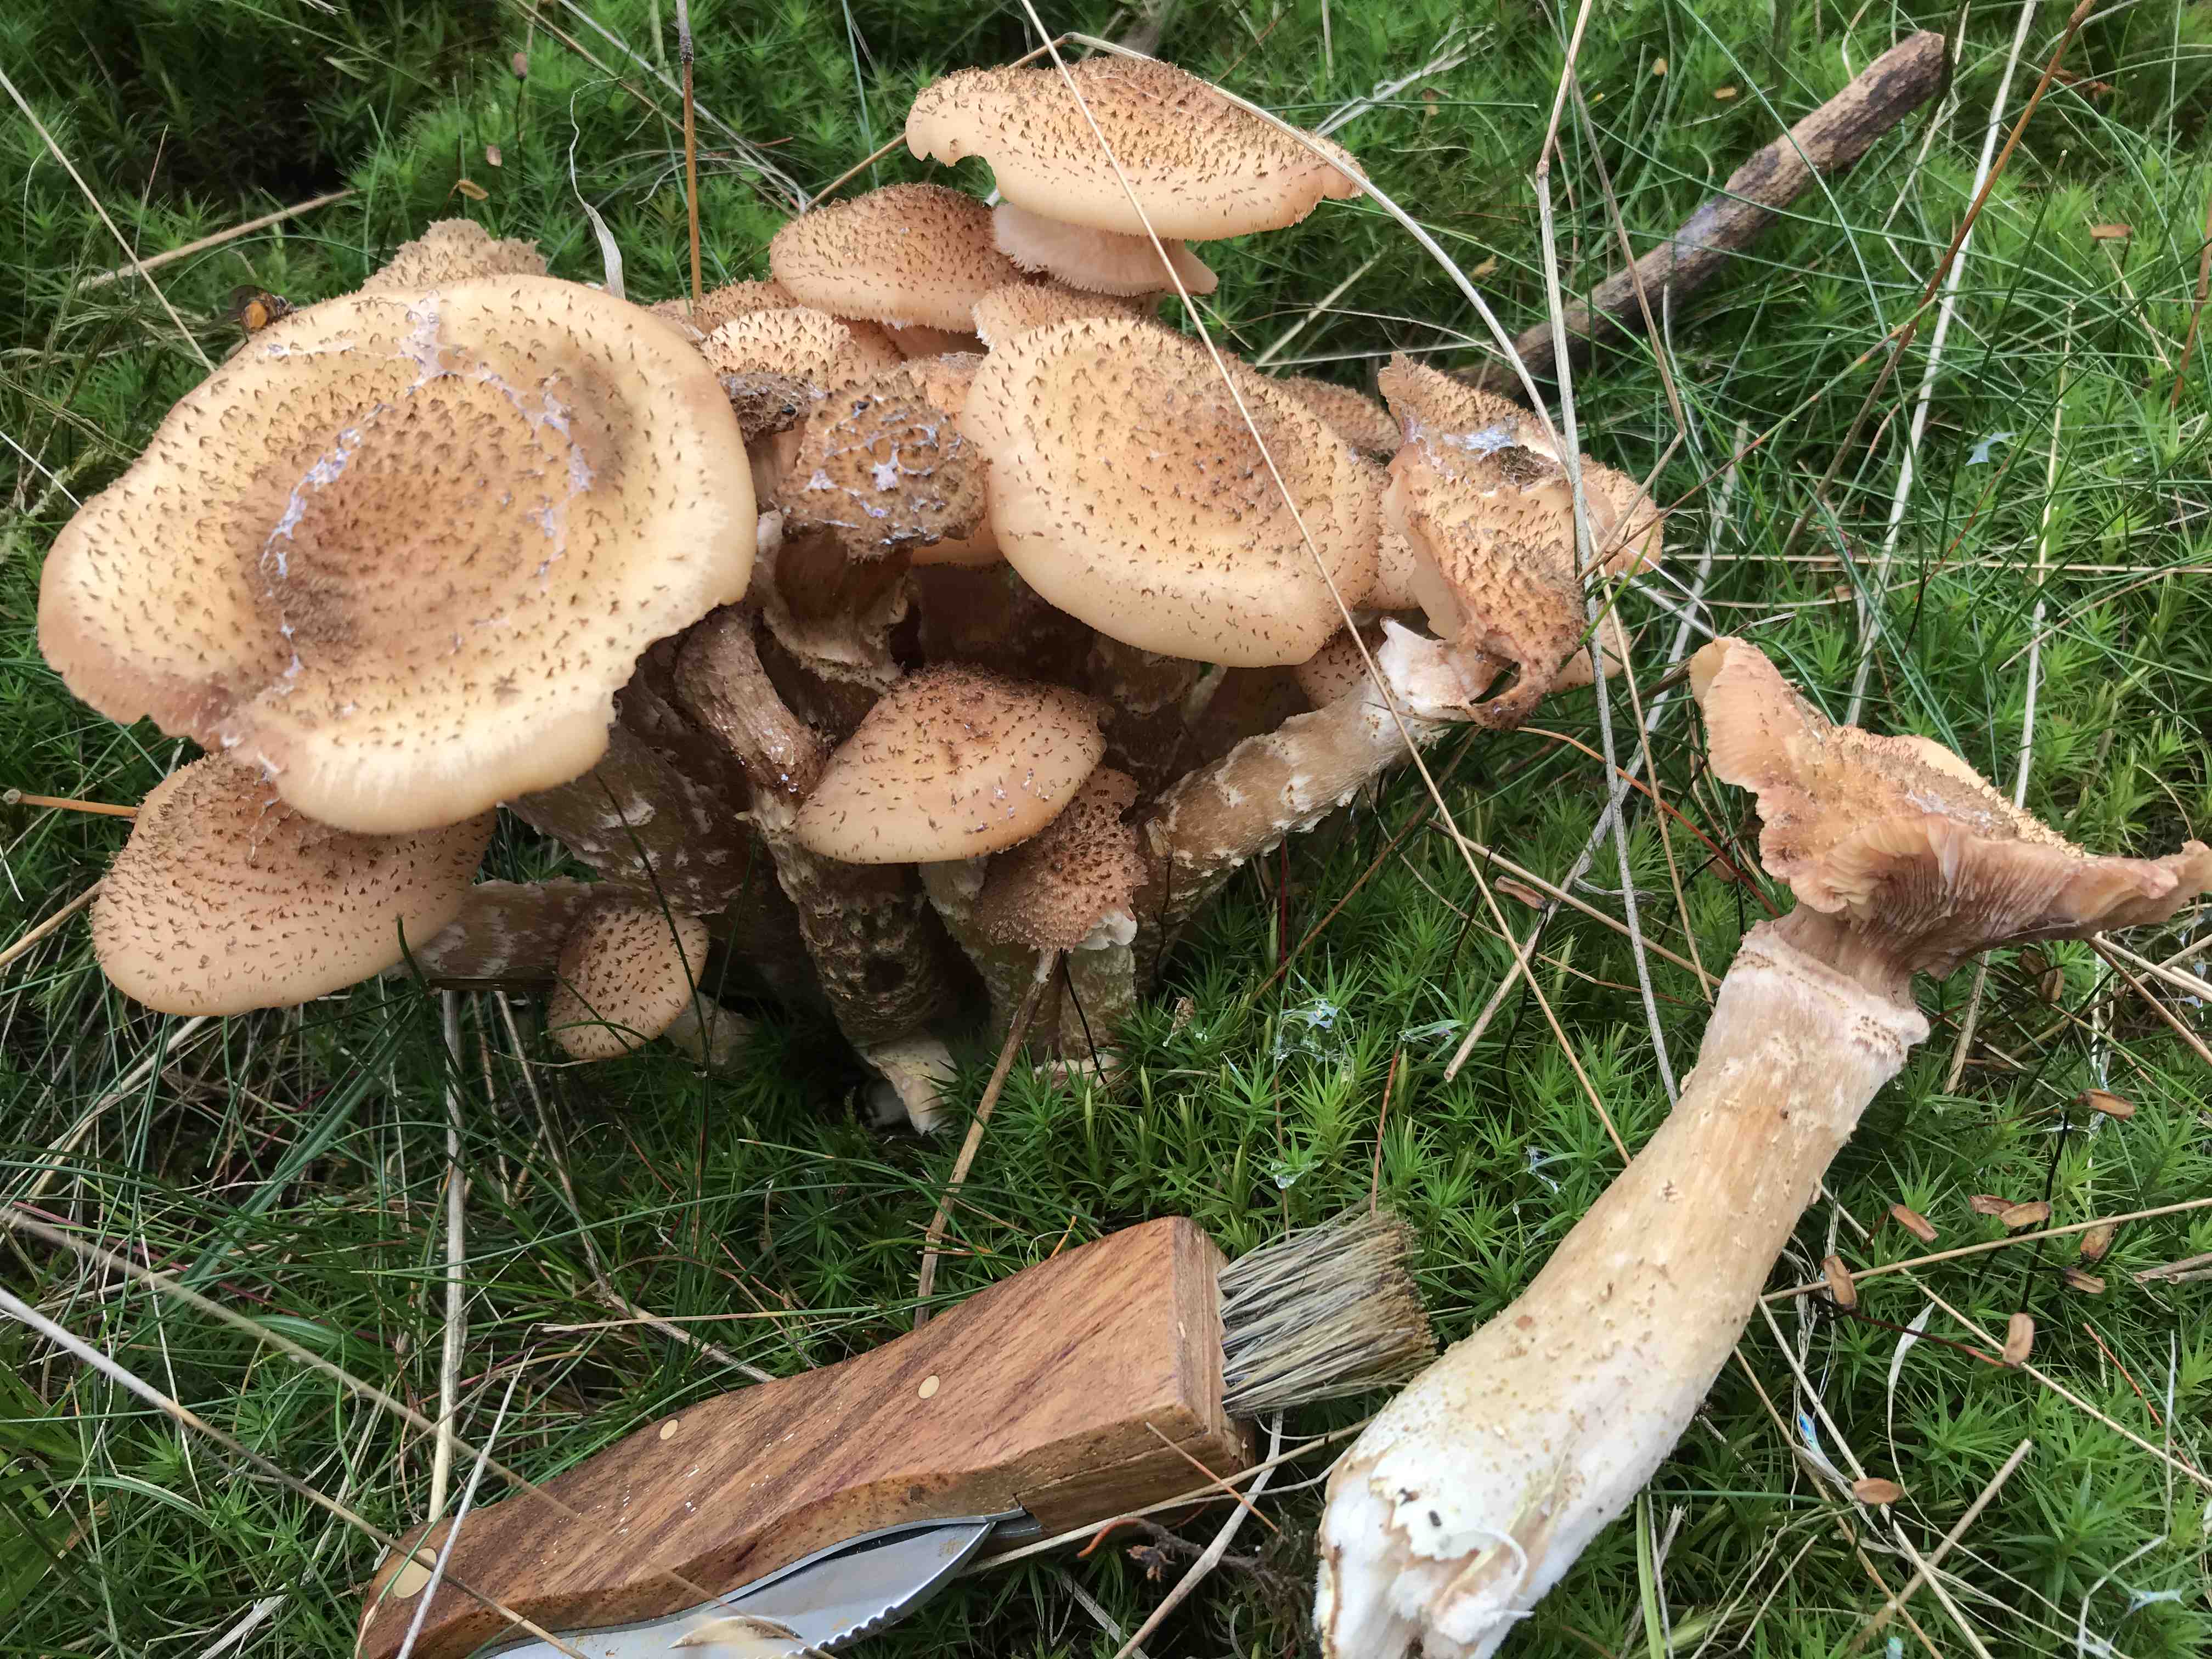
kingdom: Fungi
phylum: Basidiomycota
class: Agaricomycetes
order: Agaricales
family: Physalacriaceae
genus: Armillaria
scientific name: Armillaria ostoyae
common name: mørk honningsvamp
